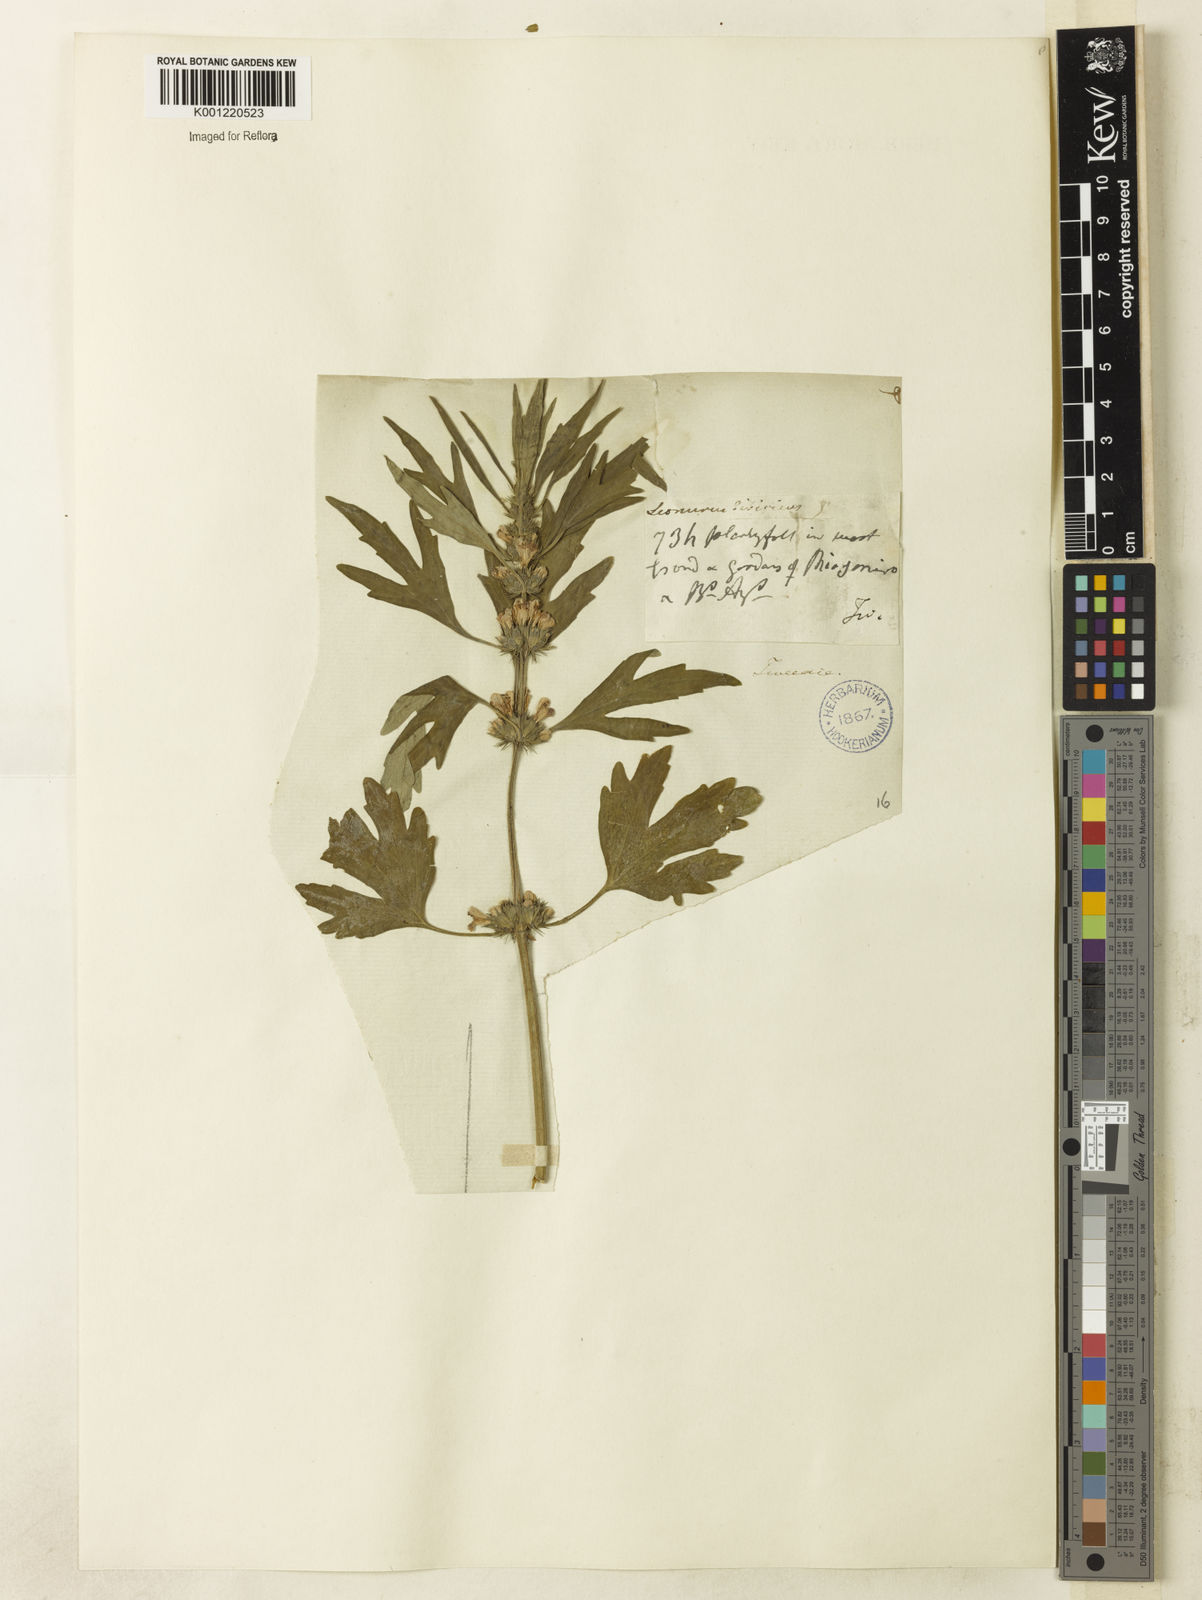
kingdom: Plantae
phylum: Tracheophyta
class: Magnoliopsida
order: Lamiales
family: Lamiaceae
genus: Leonurus
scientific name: Leonurus japonicus
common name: Honeyweed
